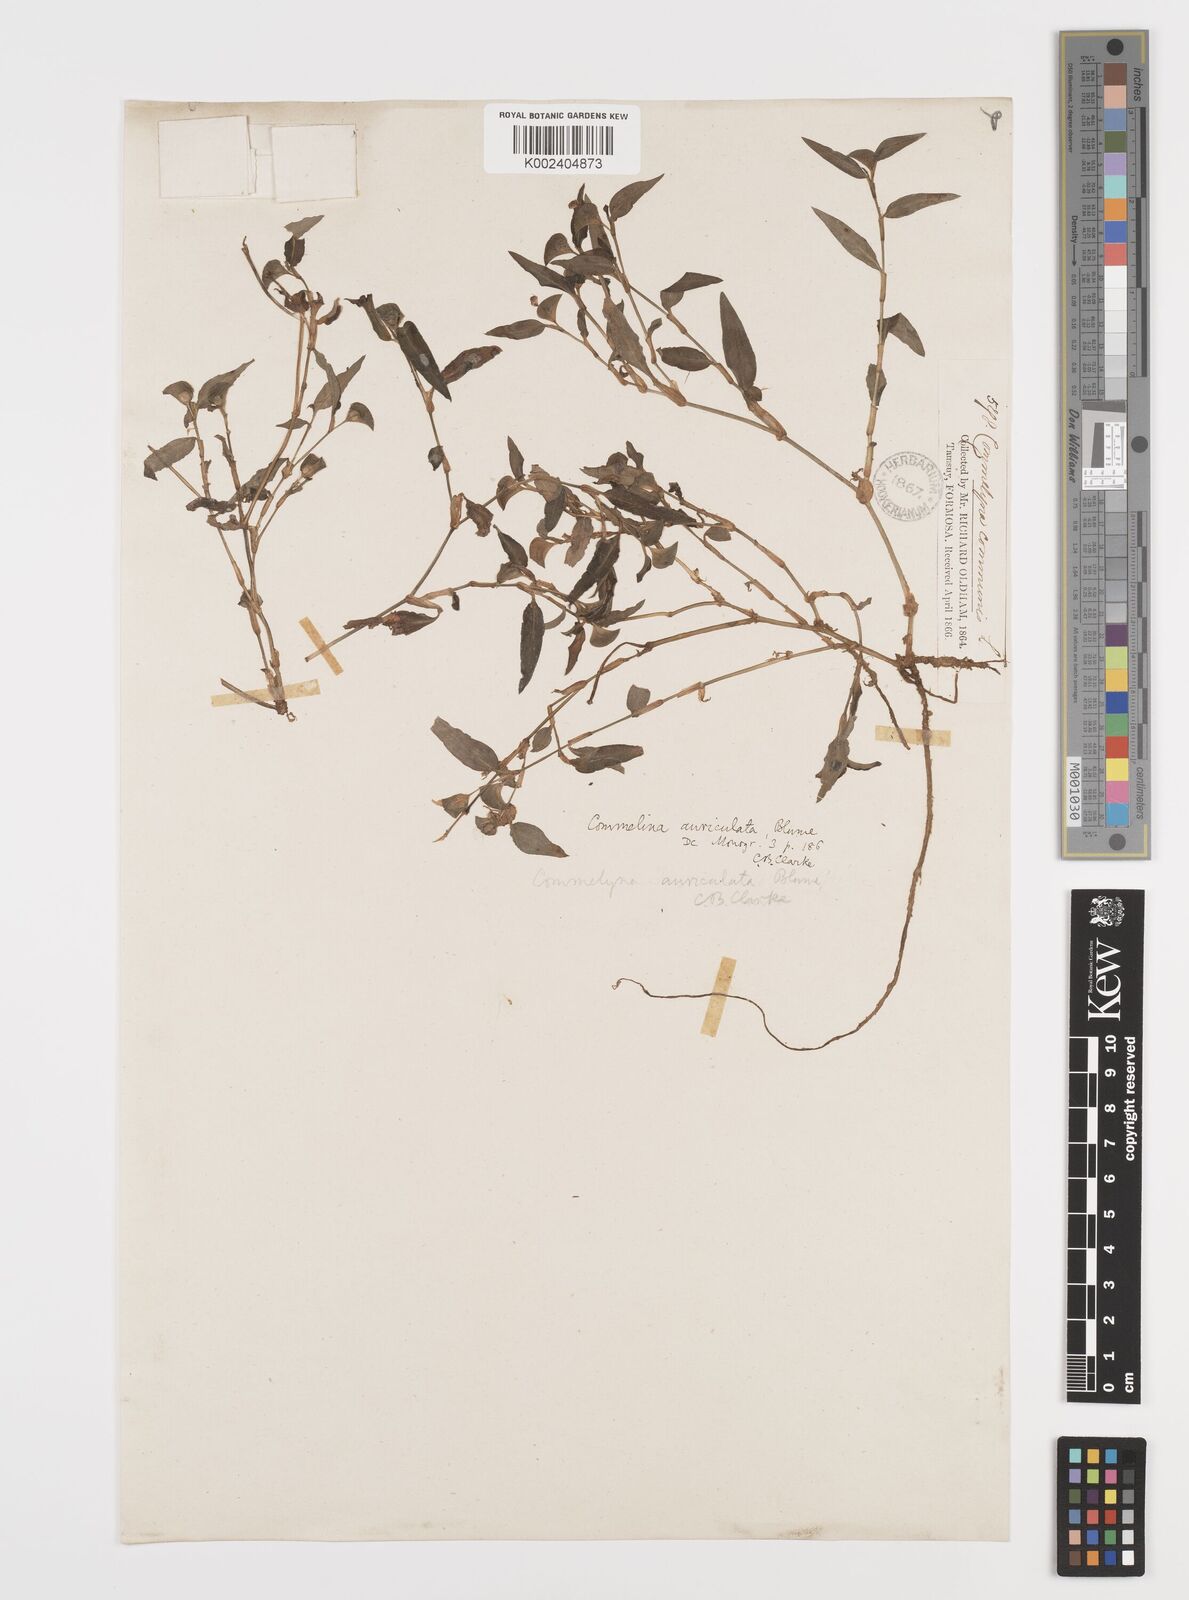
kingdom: Plantae
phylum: Tracheophyta
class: Liliopsida
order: Commelinales
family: Commelinaceae
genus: Commelina
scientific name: Commelina auriculata
